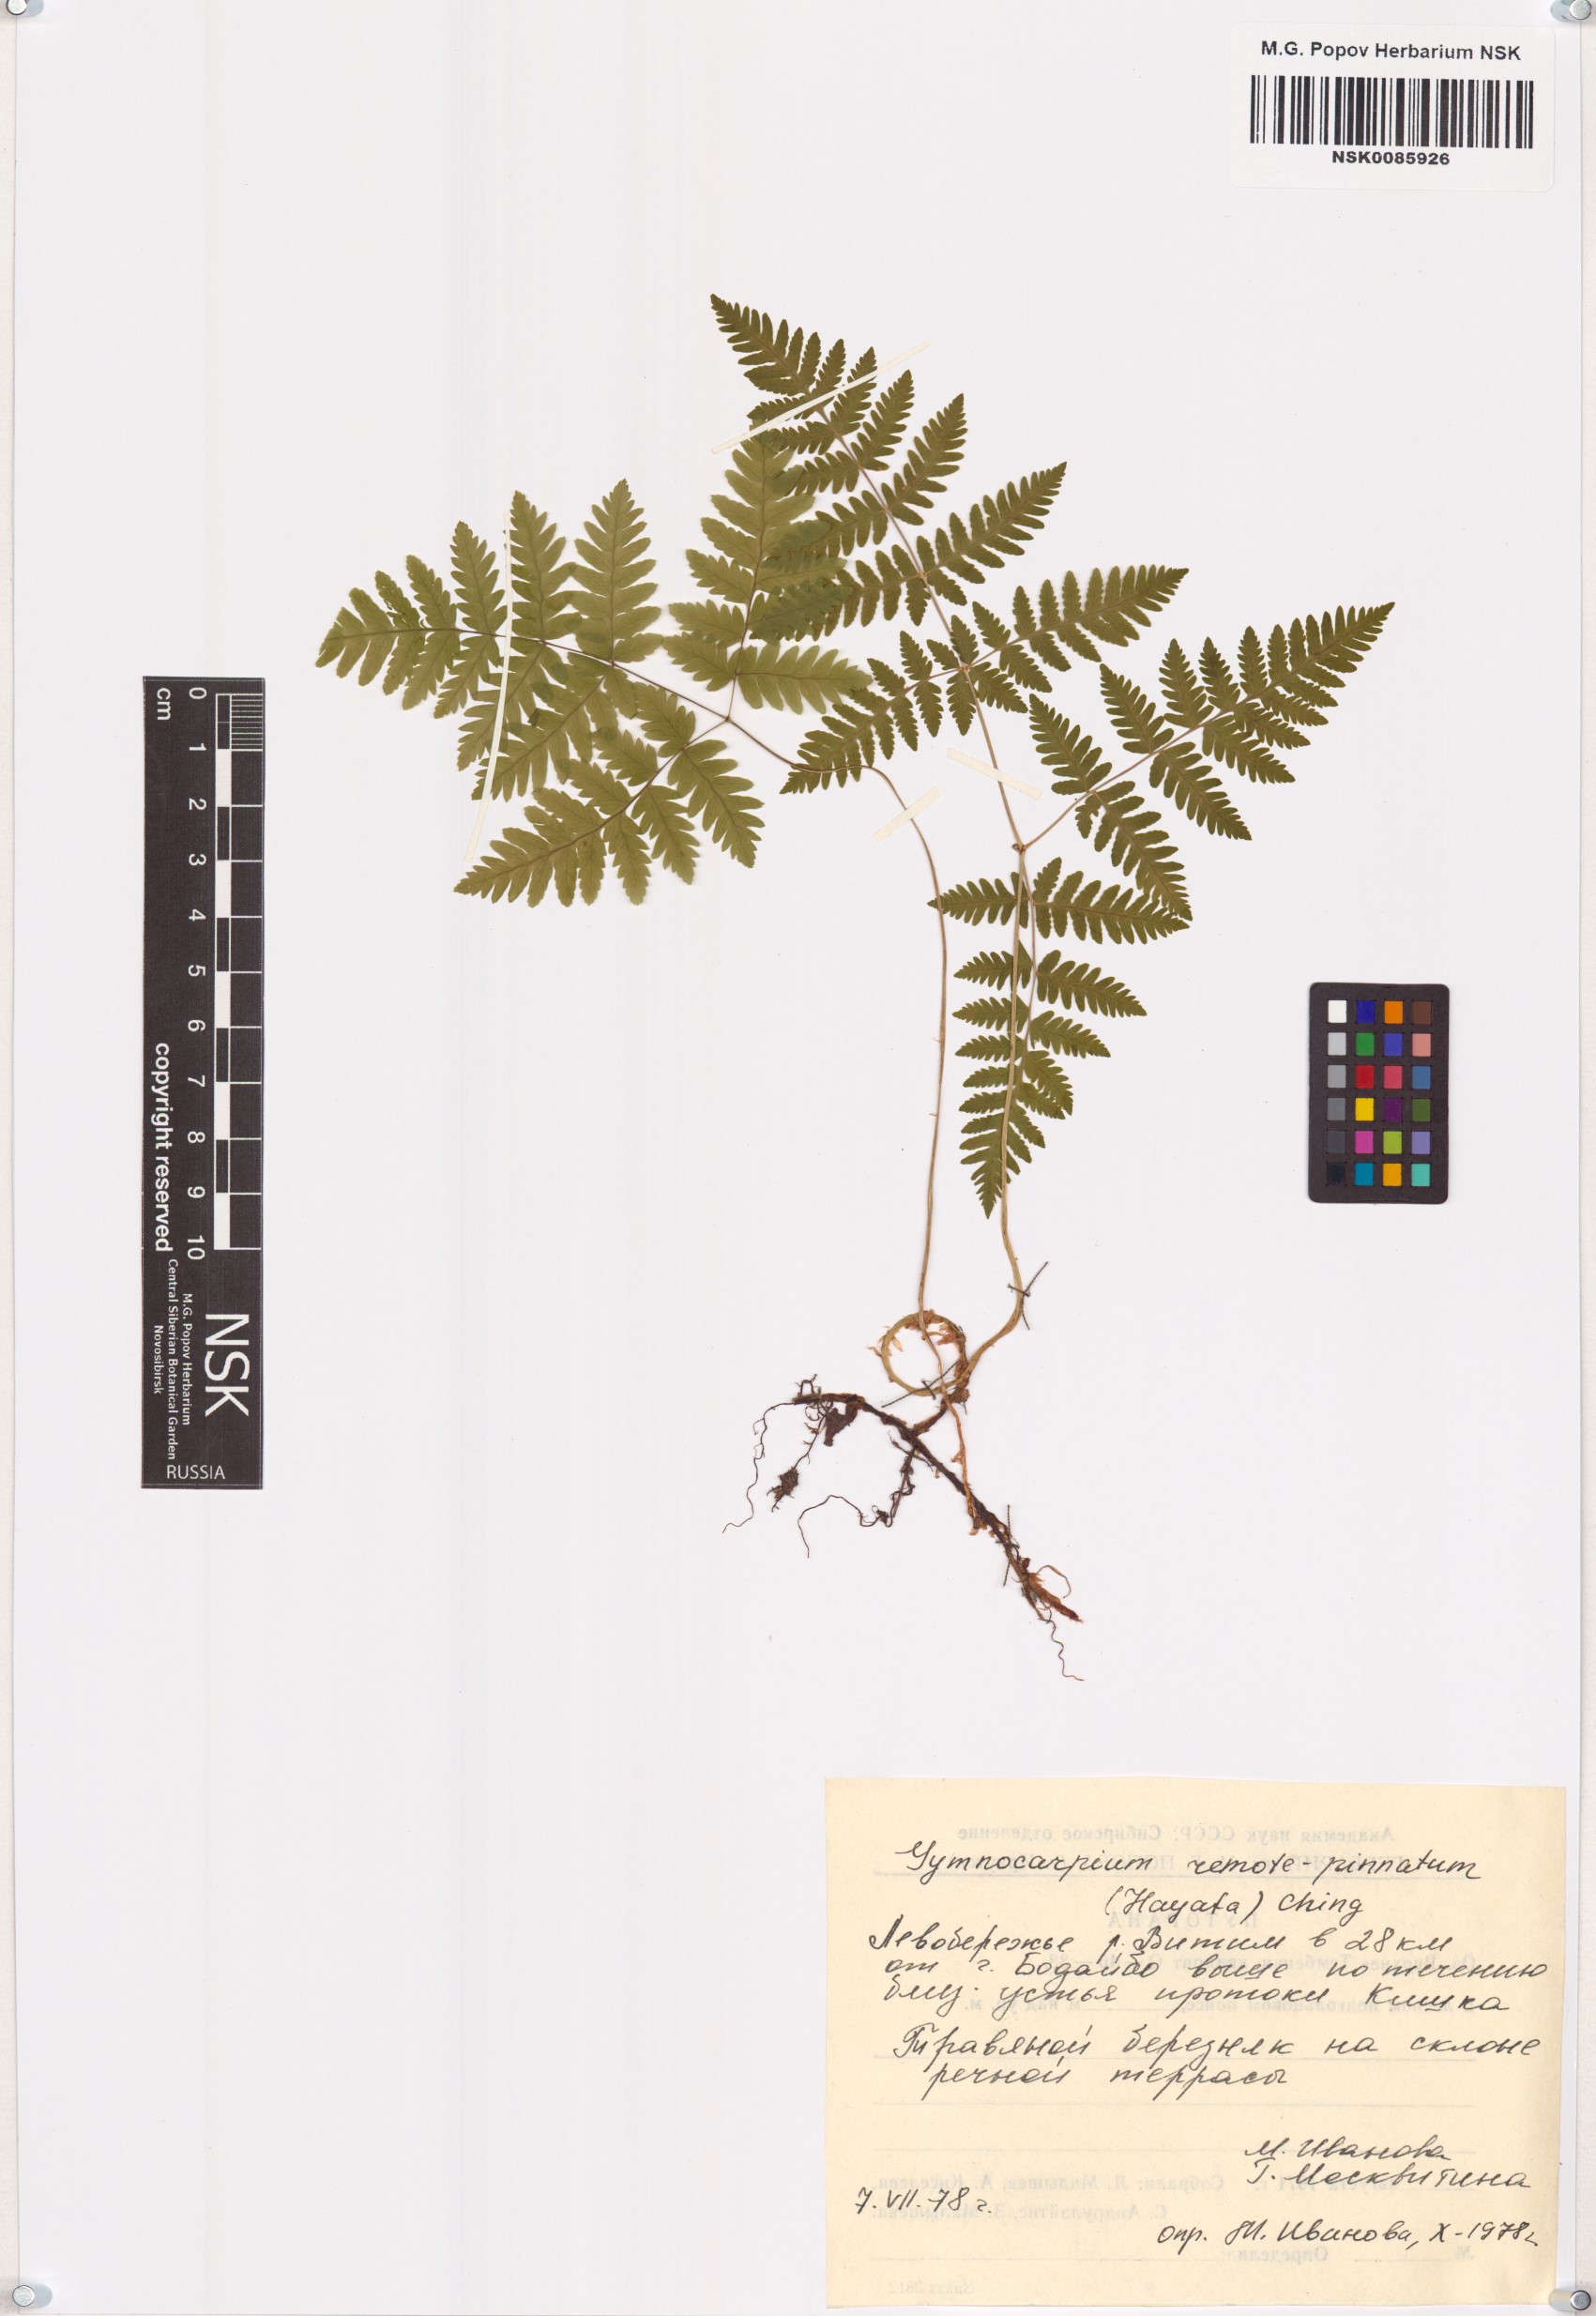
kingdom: Plantae
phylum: Tracheophyta
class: Polypodiopsida
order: Polypodiales
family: Cystopteridaceae
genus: Gymnocarpium
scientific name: Gymnocarpium remotepinnatum
